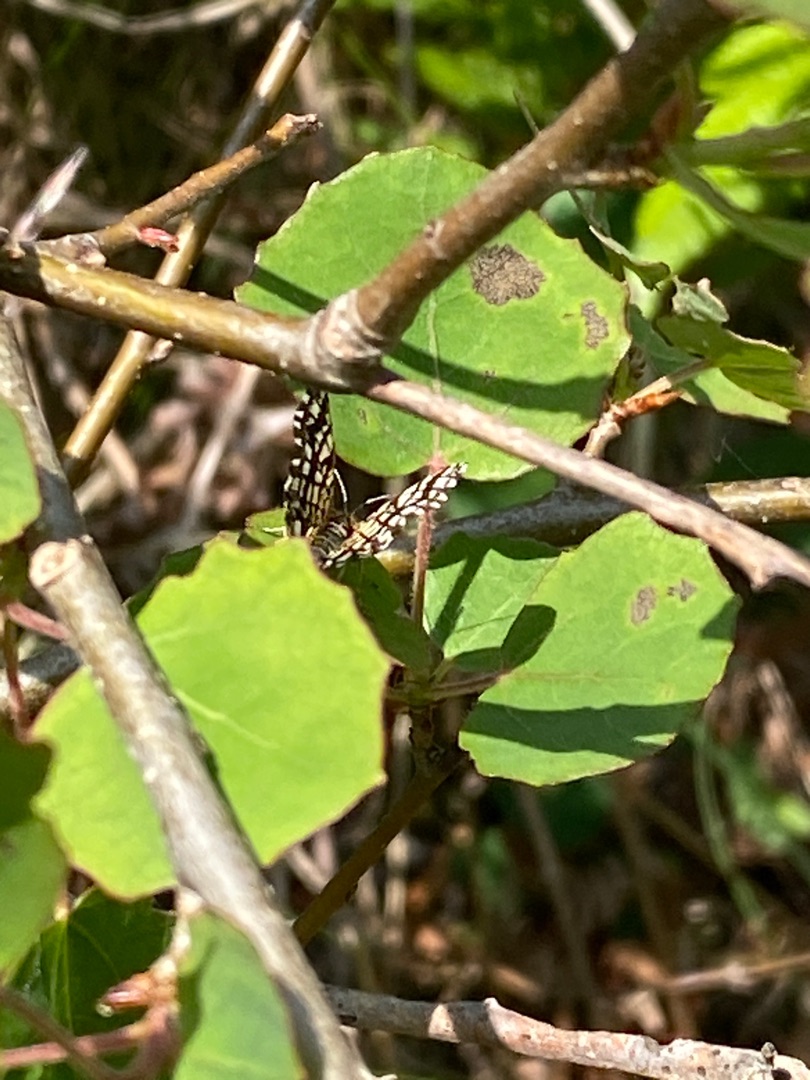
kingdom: Animalia
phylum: Arthropoda
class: Insecta
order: Lepidoptera
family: Geometridae
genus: Chiasmia
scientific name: Chiasmia clathrata
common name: Kløvermåler
